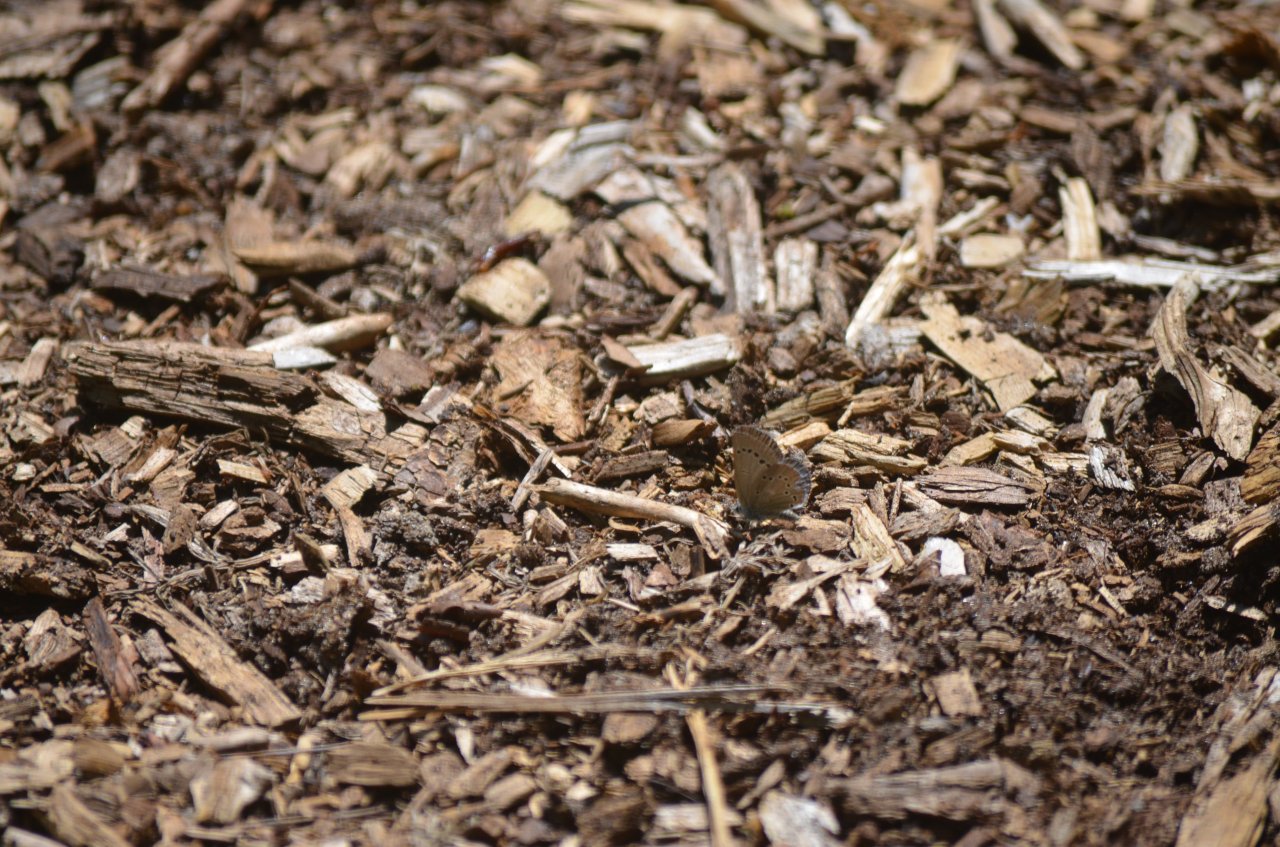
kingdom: Animalia
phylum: Arthropoda
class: Insecta
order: Lepidoptera
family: Lycaenidae
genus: Glaucopsyche
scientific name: Glaucopsyche lygdamus
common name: Silvery Blue
